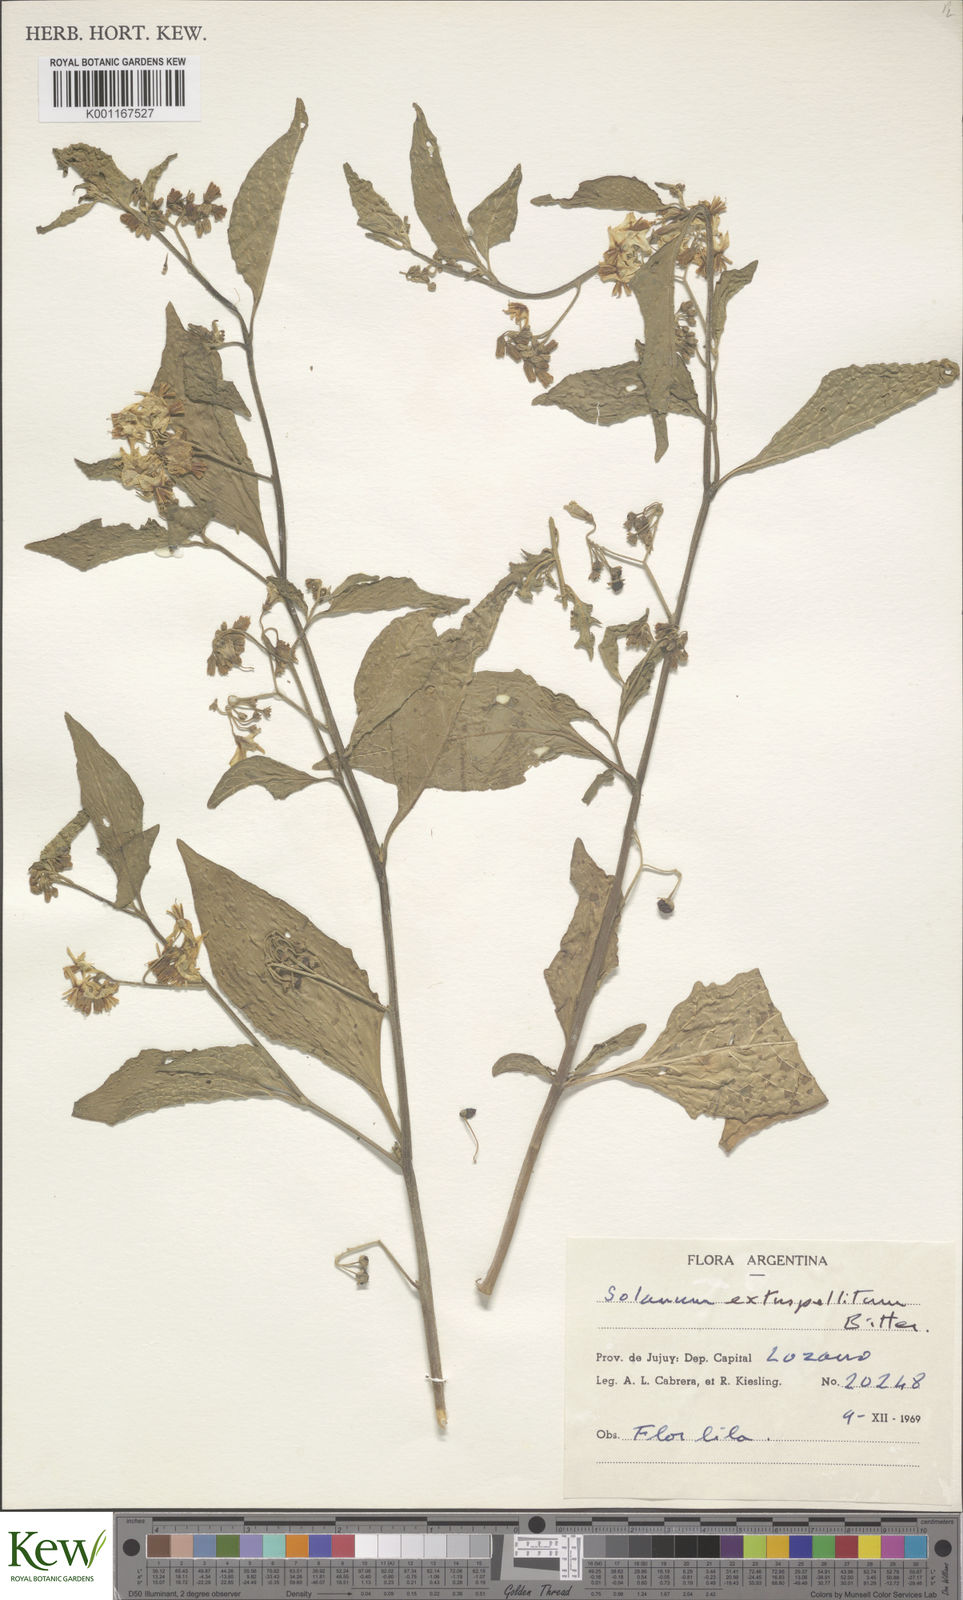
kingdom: Plantae
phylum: Tracheophyta
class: Magnoliopsida
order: Solanales
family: Solanaceae
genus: Solanum
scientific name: Solanum cochabambense
